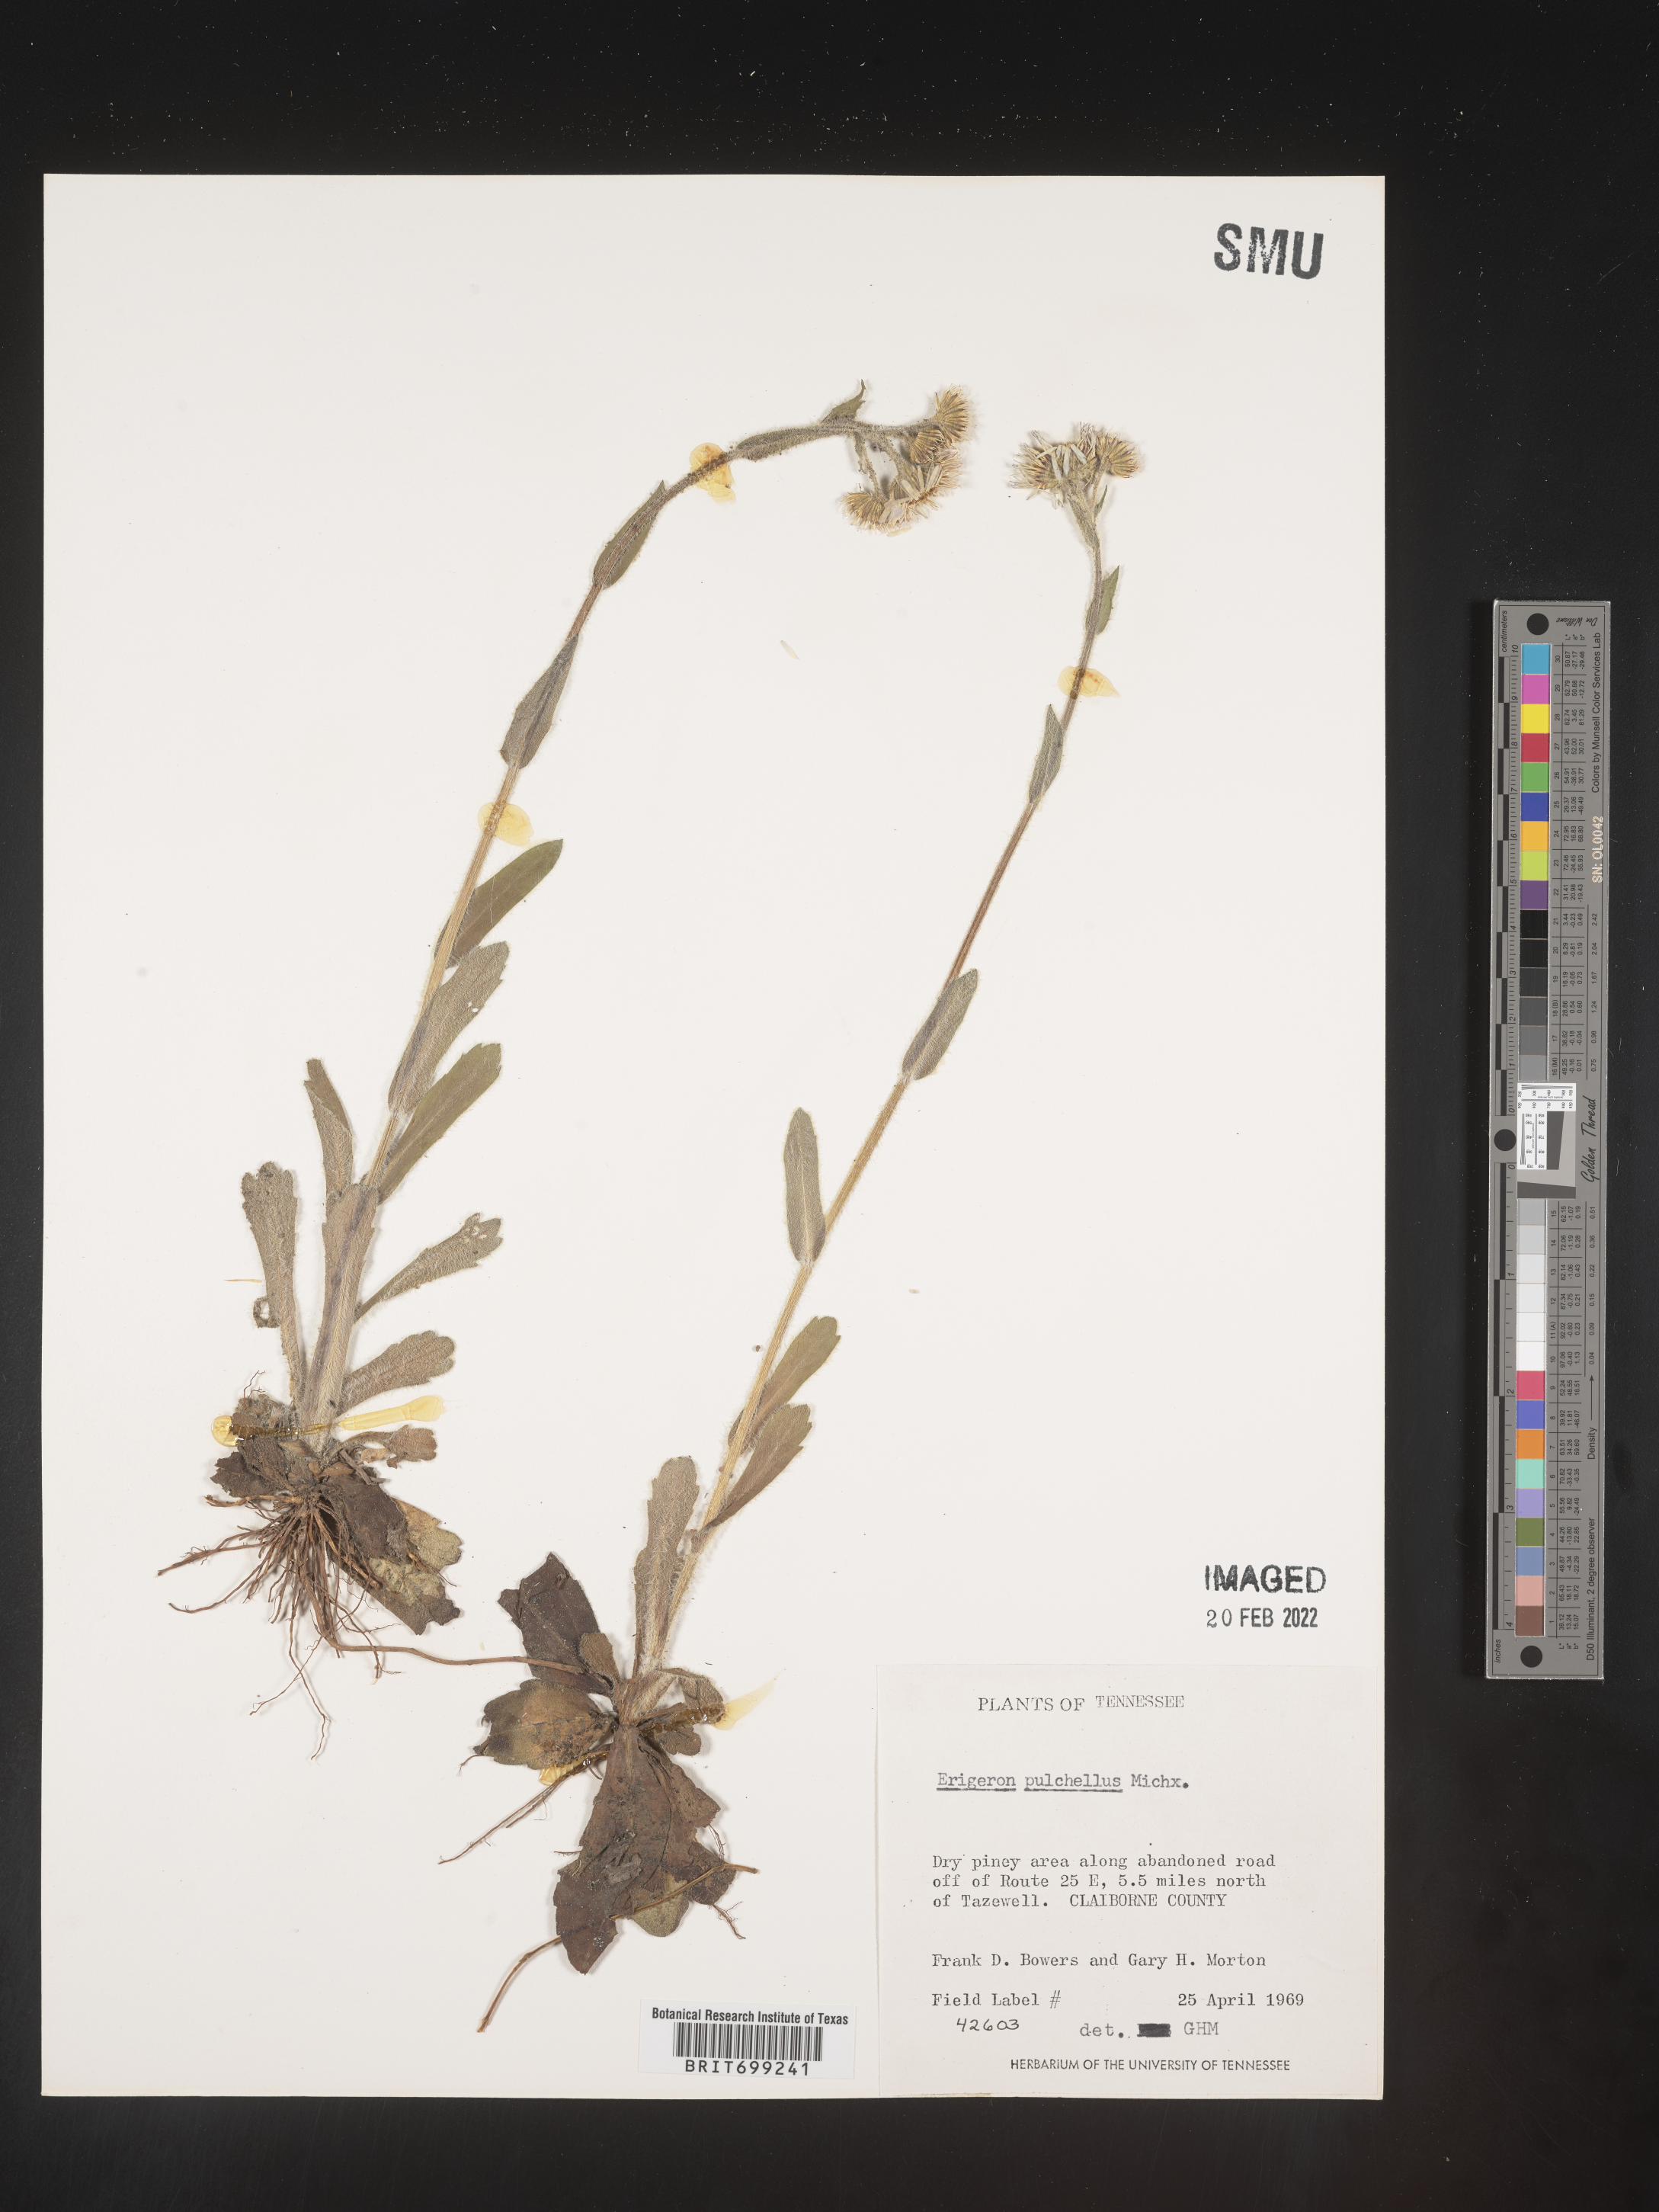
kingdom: Plantae
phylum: Tracheophyta
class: Magnoliopsida
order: Asterales
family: Asteraceae
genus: Erigeron
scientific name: Erigeron pulchellus
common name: Hairy fleabane
